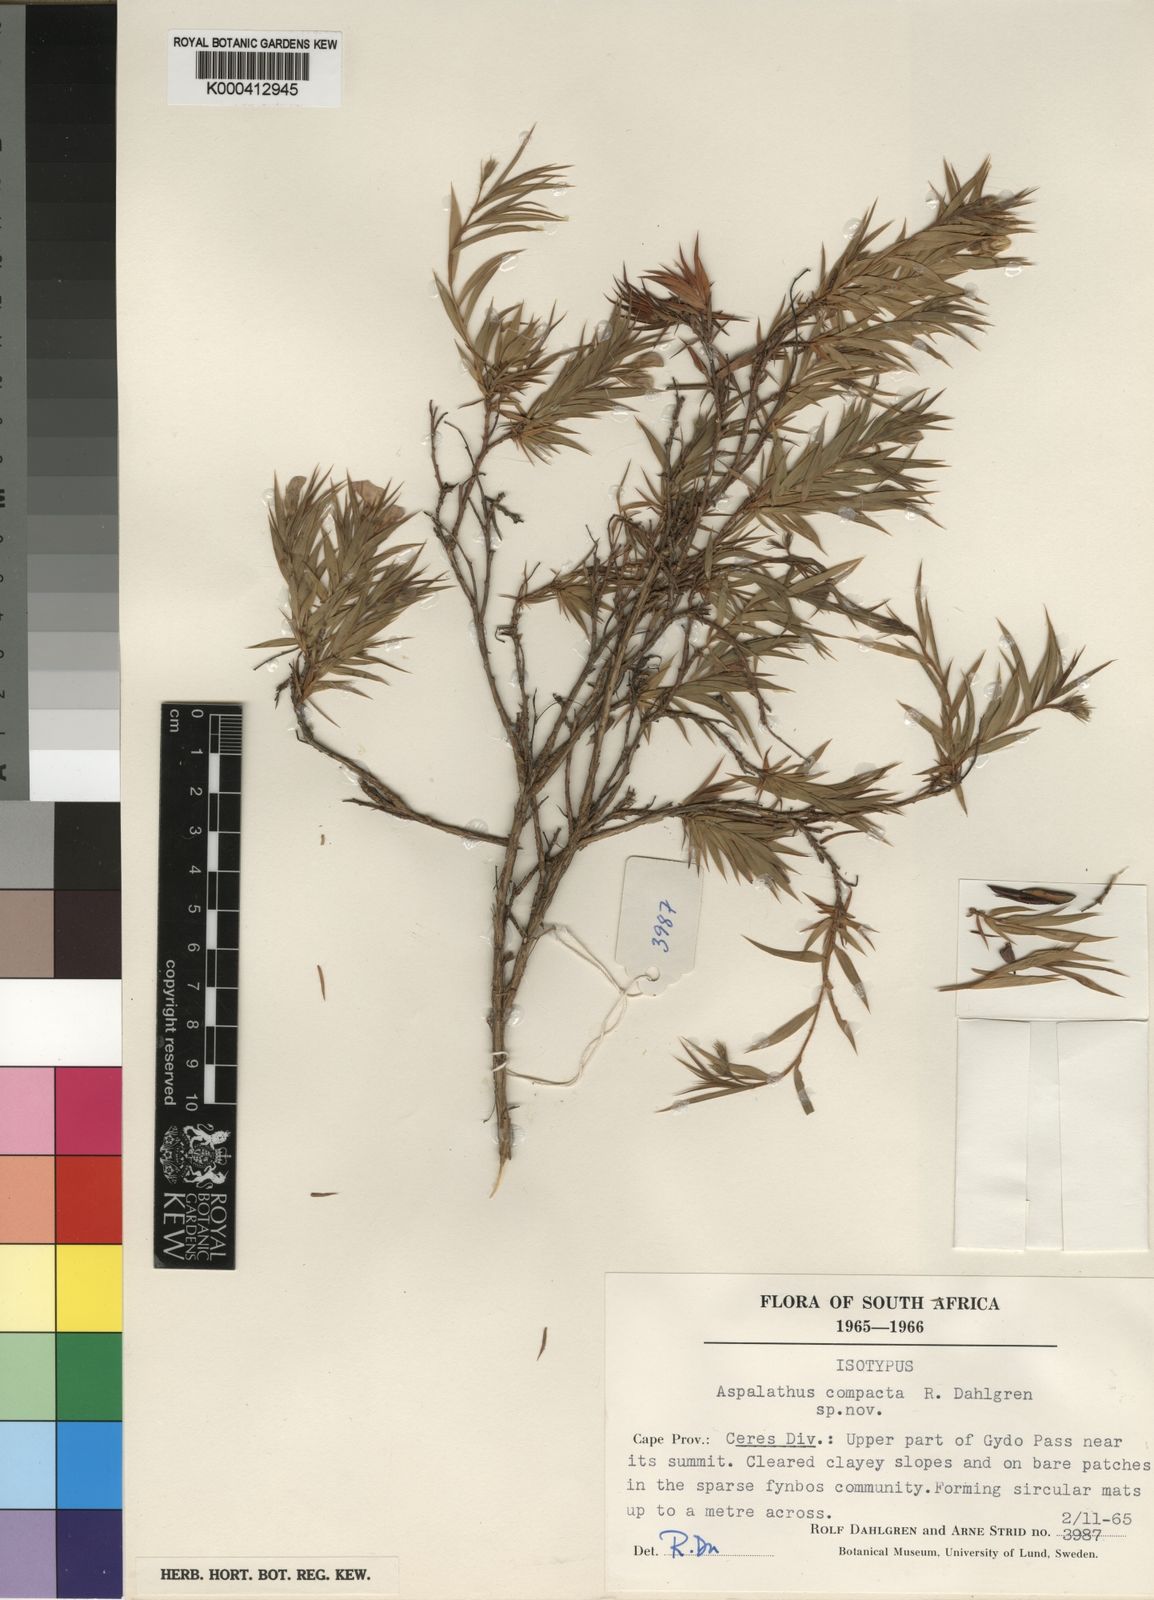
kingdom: Plantae
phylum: Tracheophyta
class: Magnoliopsida
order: Fabales
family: Fabaceae
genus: Aspalathus
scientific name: Aspalathus compacta
